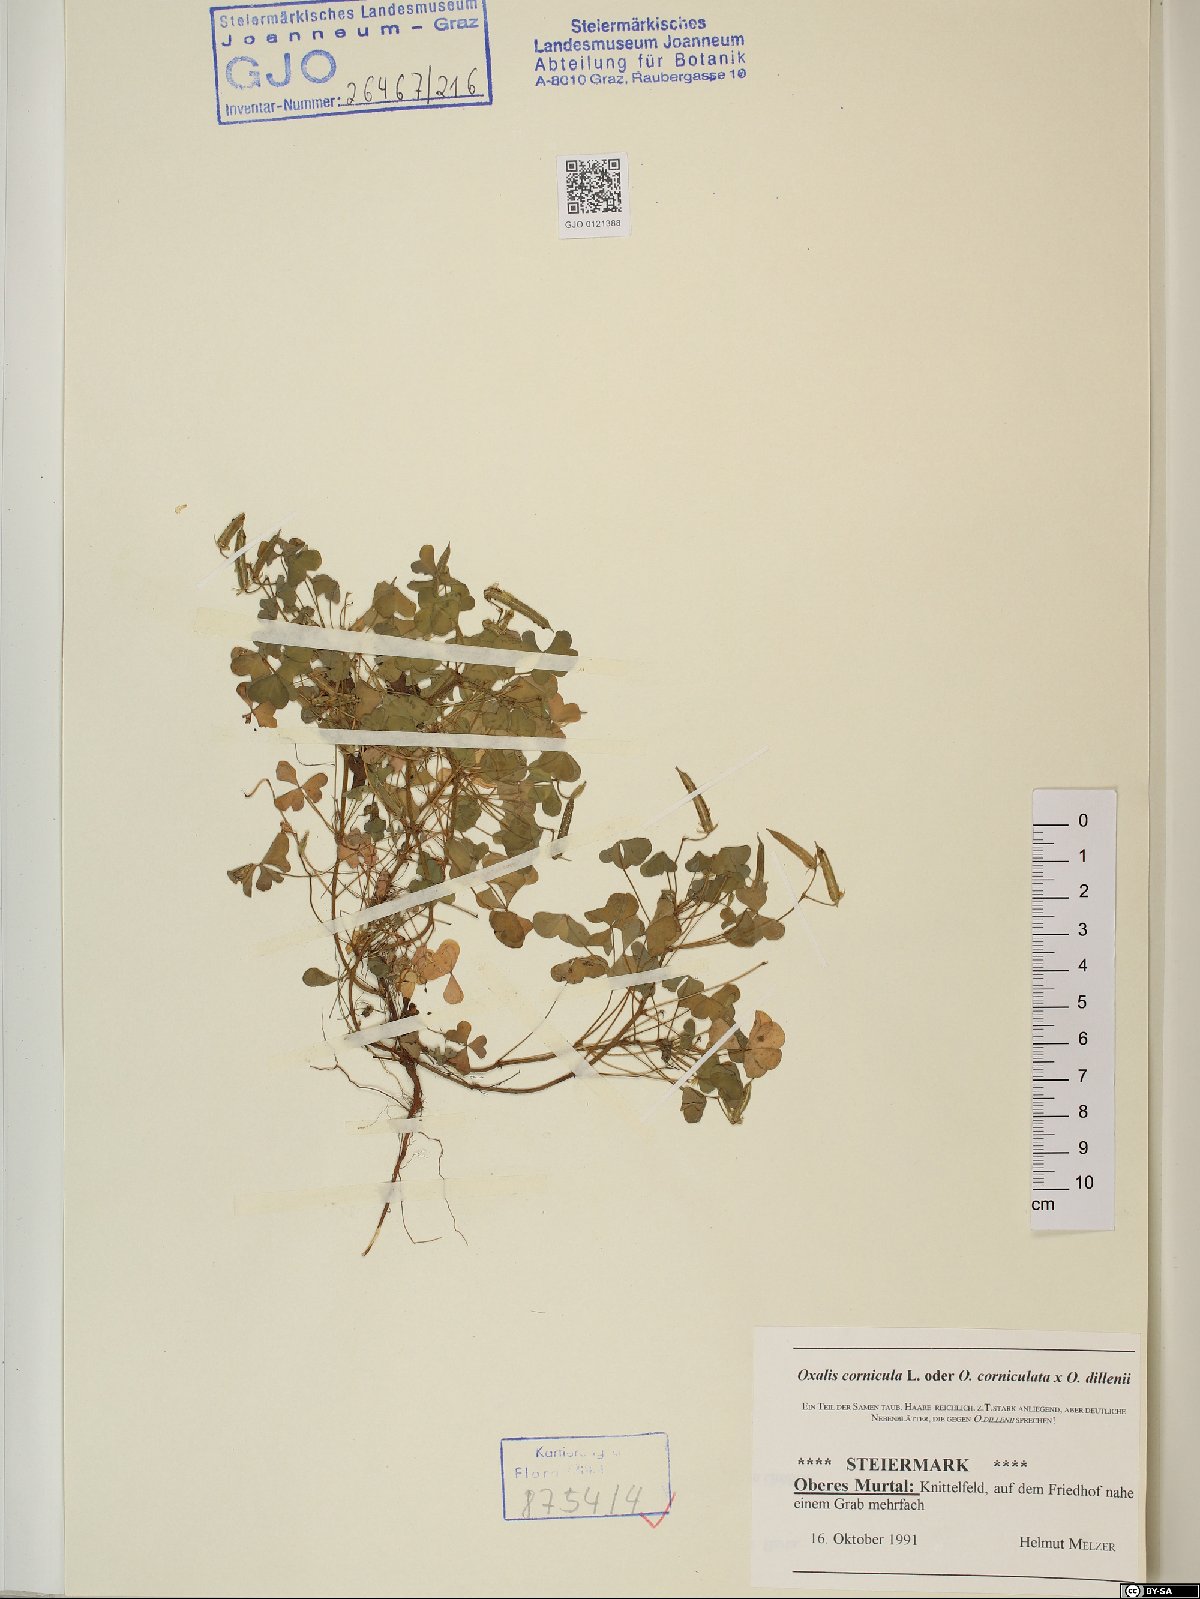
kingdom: Plantae
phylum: Tracheophyta
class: Magnoliopsida
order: Oxalidales
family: Oxalidaceae
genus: Oxalis
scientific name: Oxalis corniculata
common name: Procumbent yellow-sorrel
